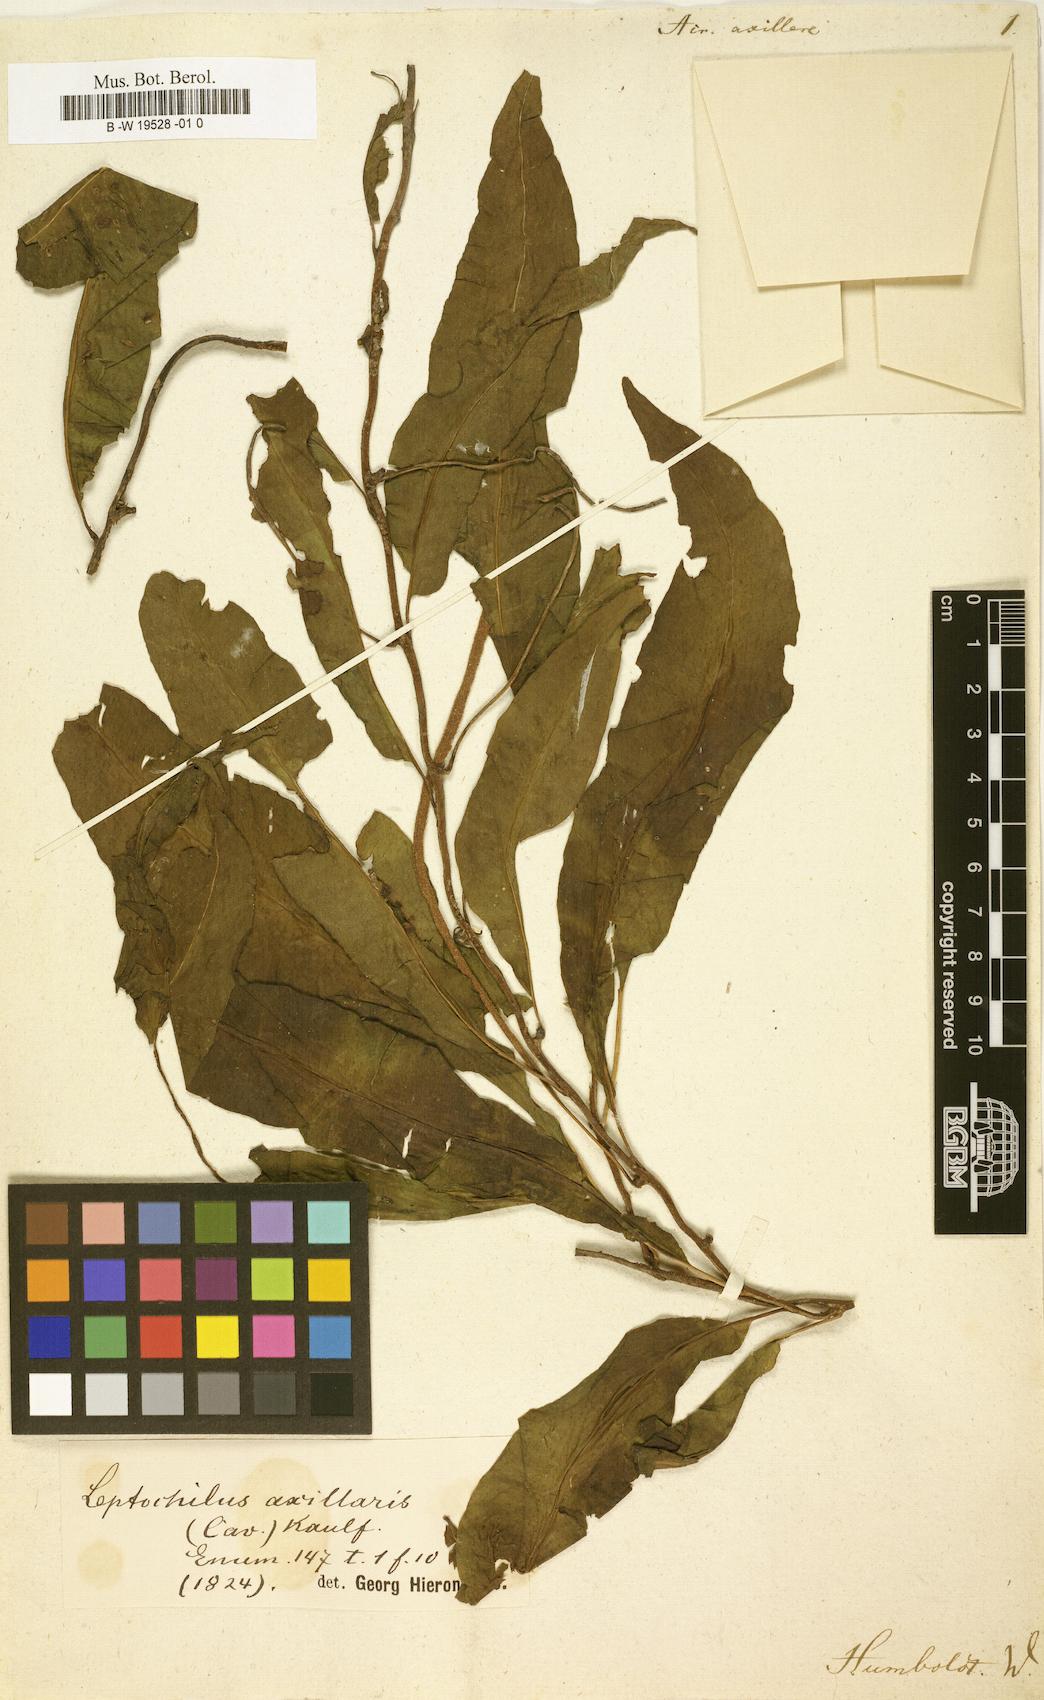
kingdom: Plantae
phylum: Tracheophyta
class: Polypodiopsida
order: Polypodiales
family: Polypodiaceae
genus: Leptochilus
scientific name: Leptochilus axillaris
